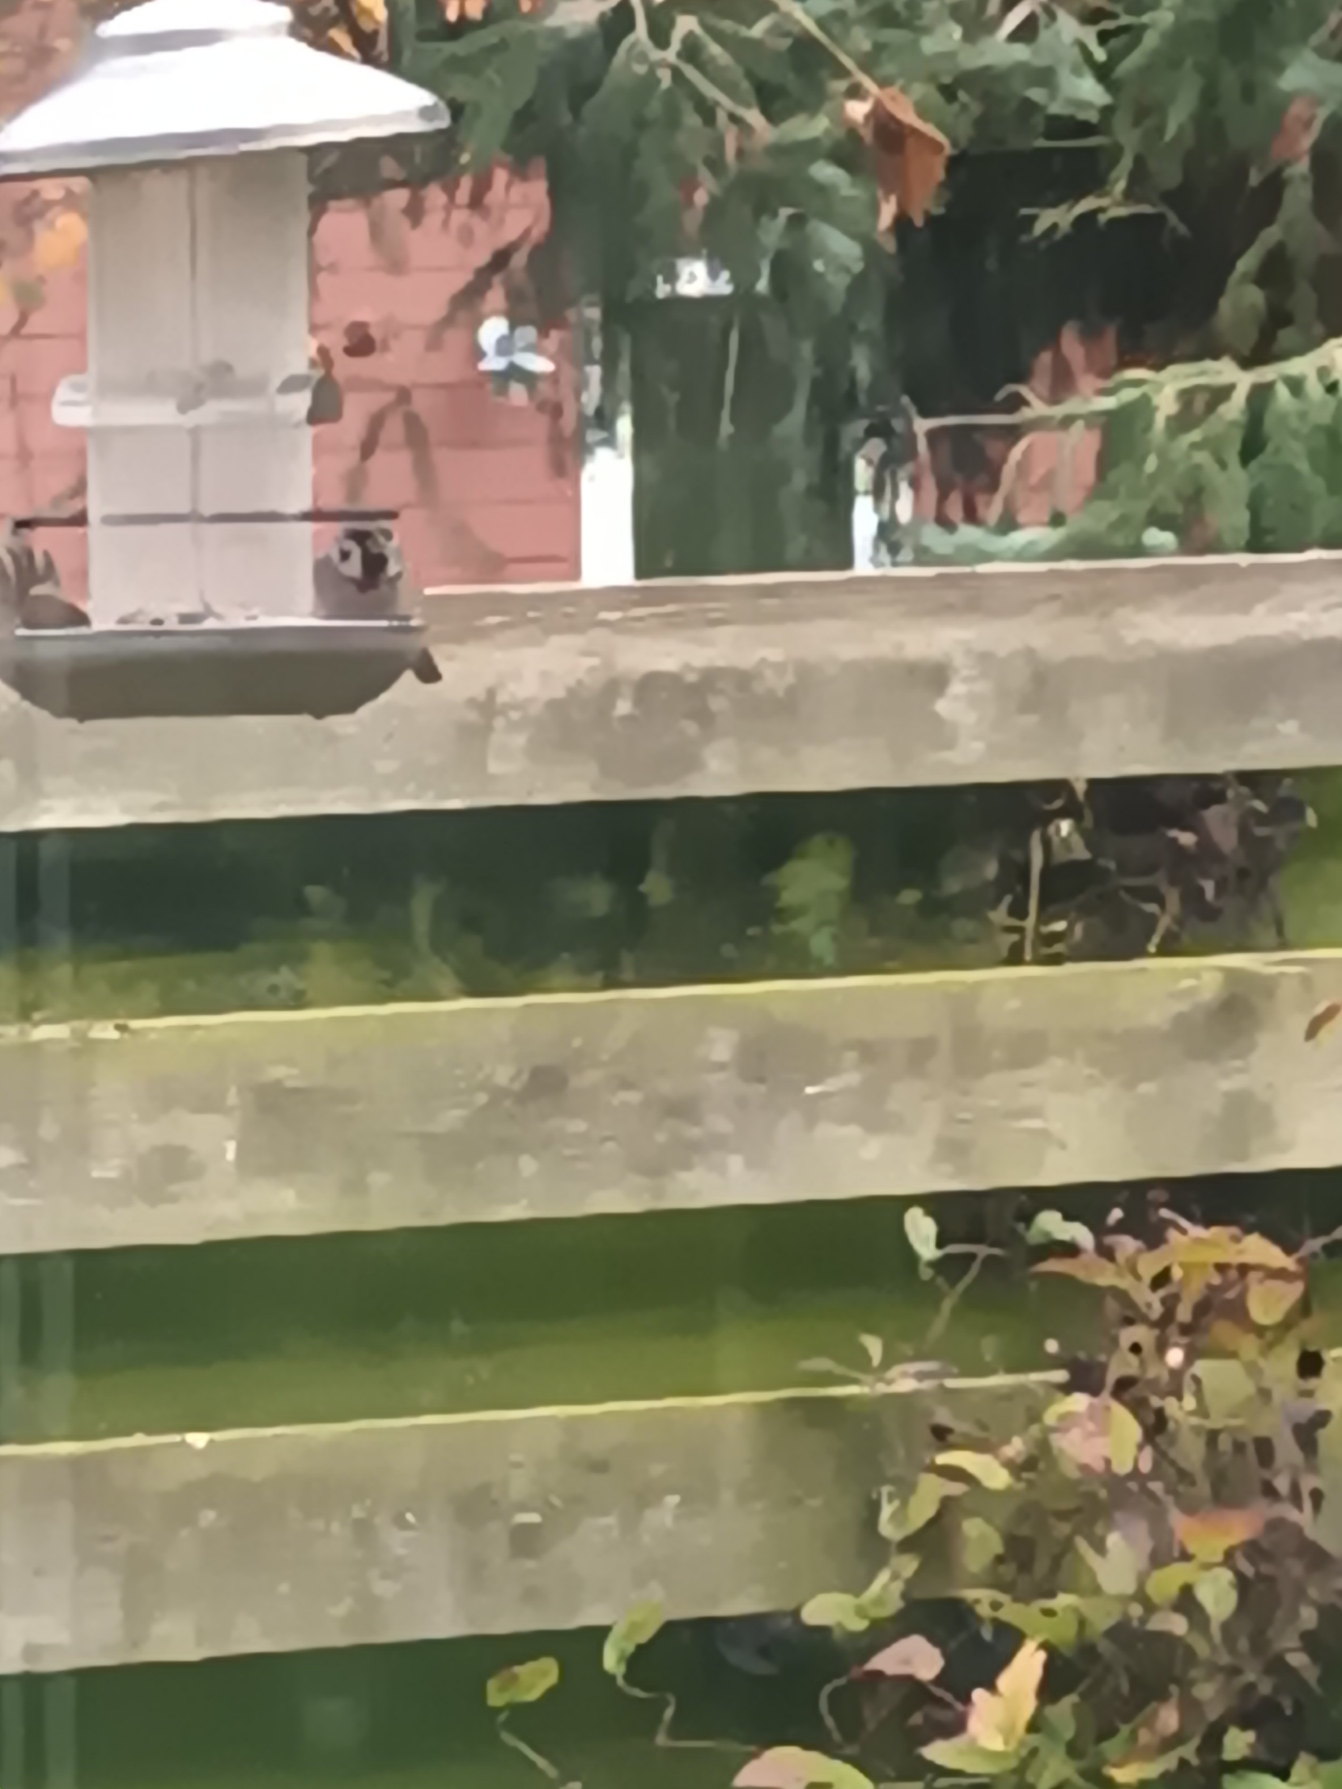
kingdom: Animalia
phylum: Chordata
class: Aves
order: Passeriformes
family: Passeridae
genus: Passer
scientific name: Passer montanus
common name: Skovspurv
